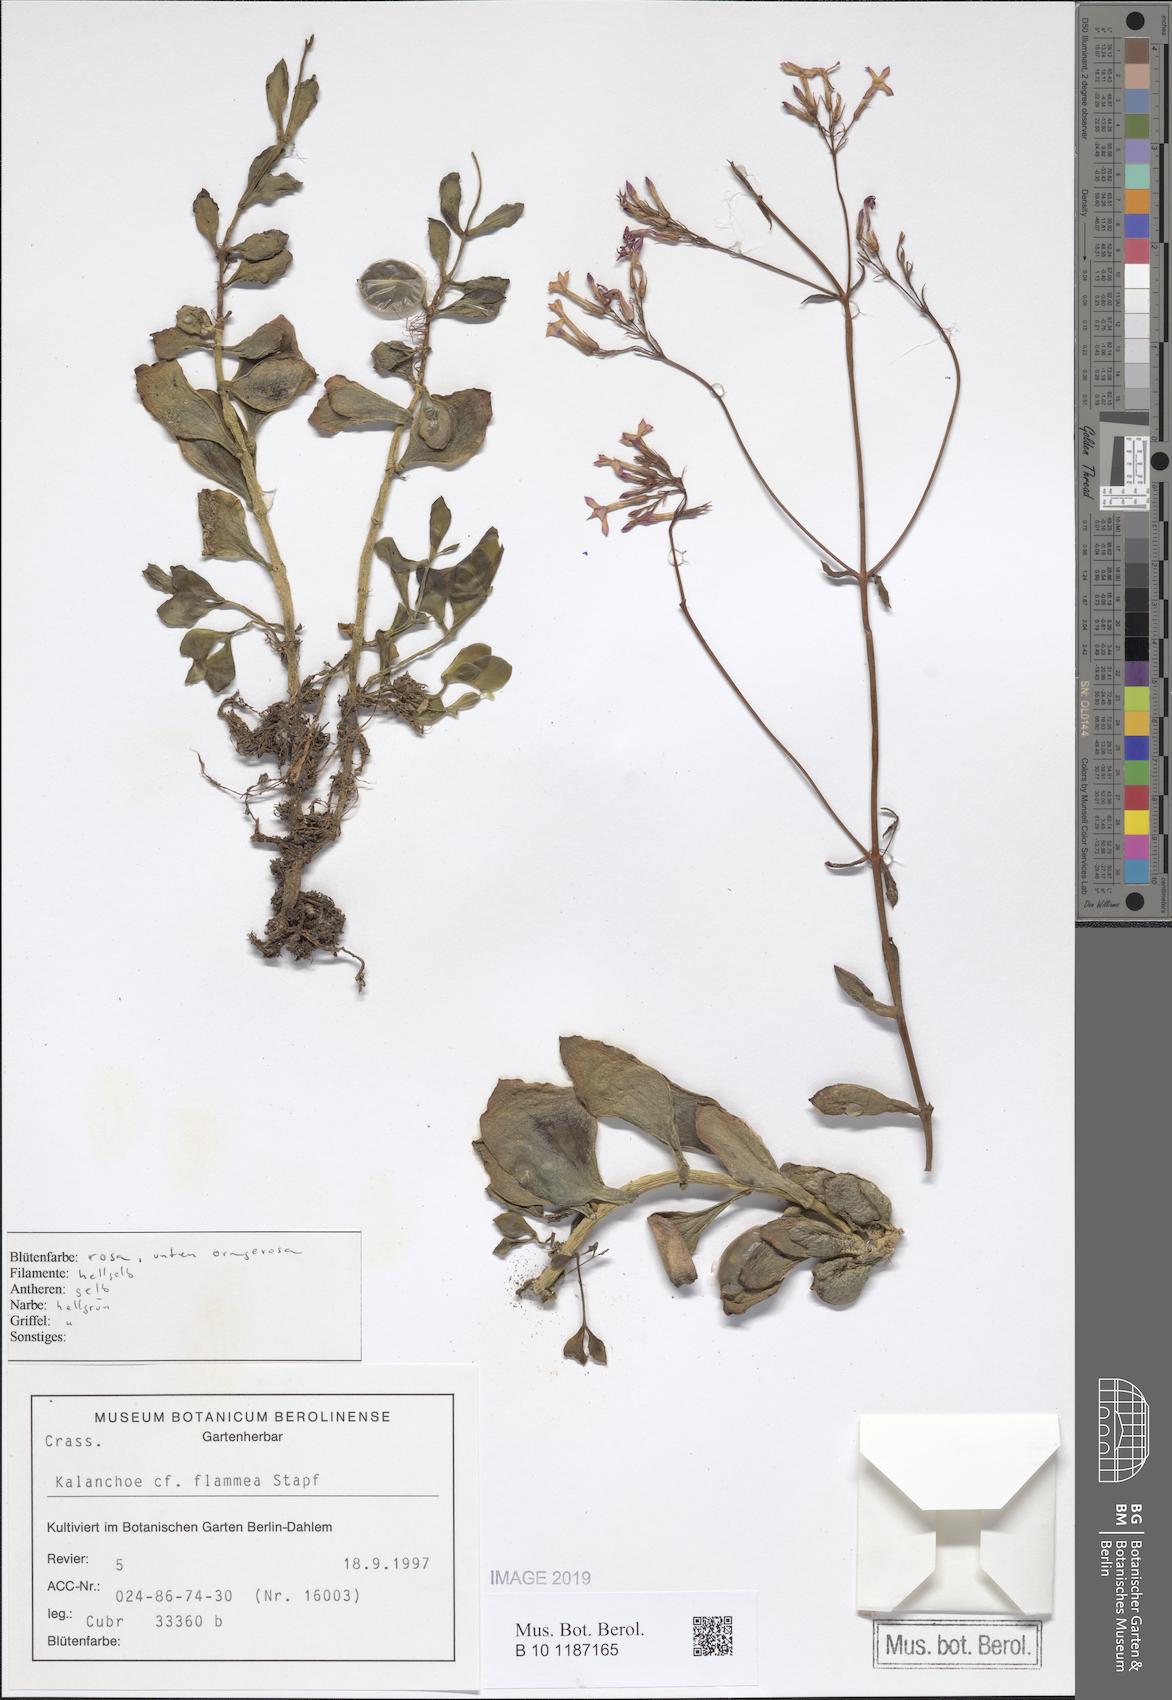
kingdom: Plantae
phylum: Tracheophyta
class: Magnoliopsida
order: Saxifragales
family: Crassulaceae
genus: Kalanchoe
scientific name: Kalanchoe glaucescens
